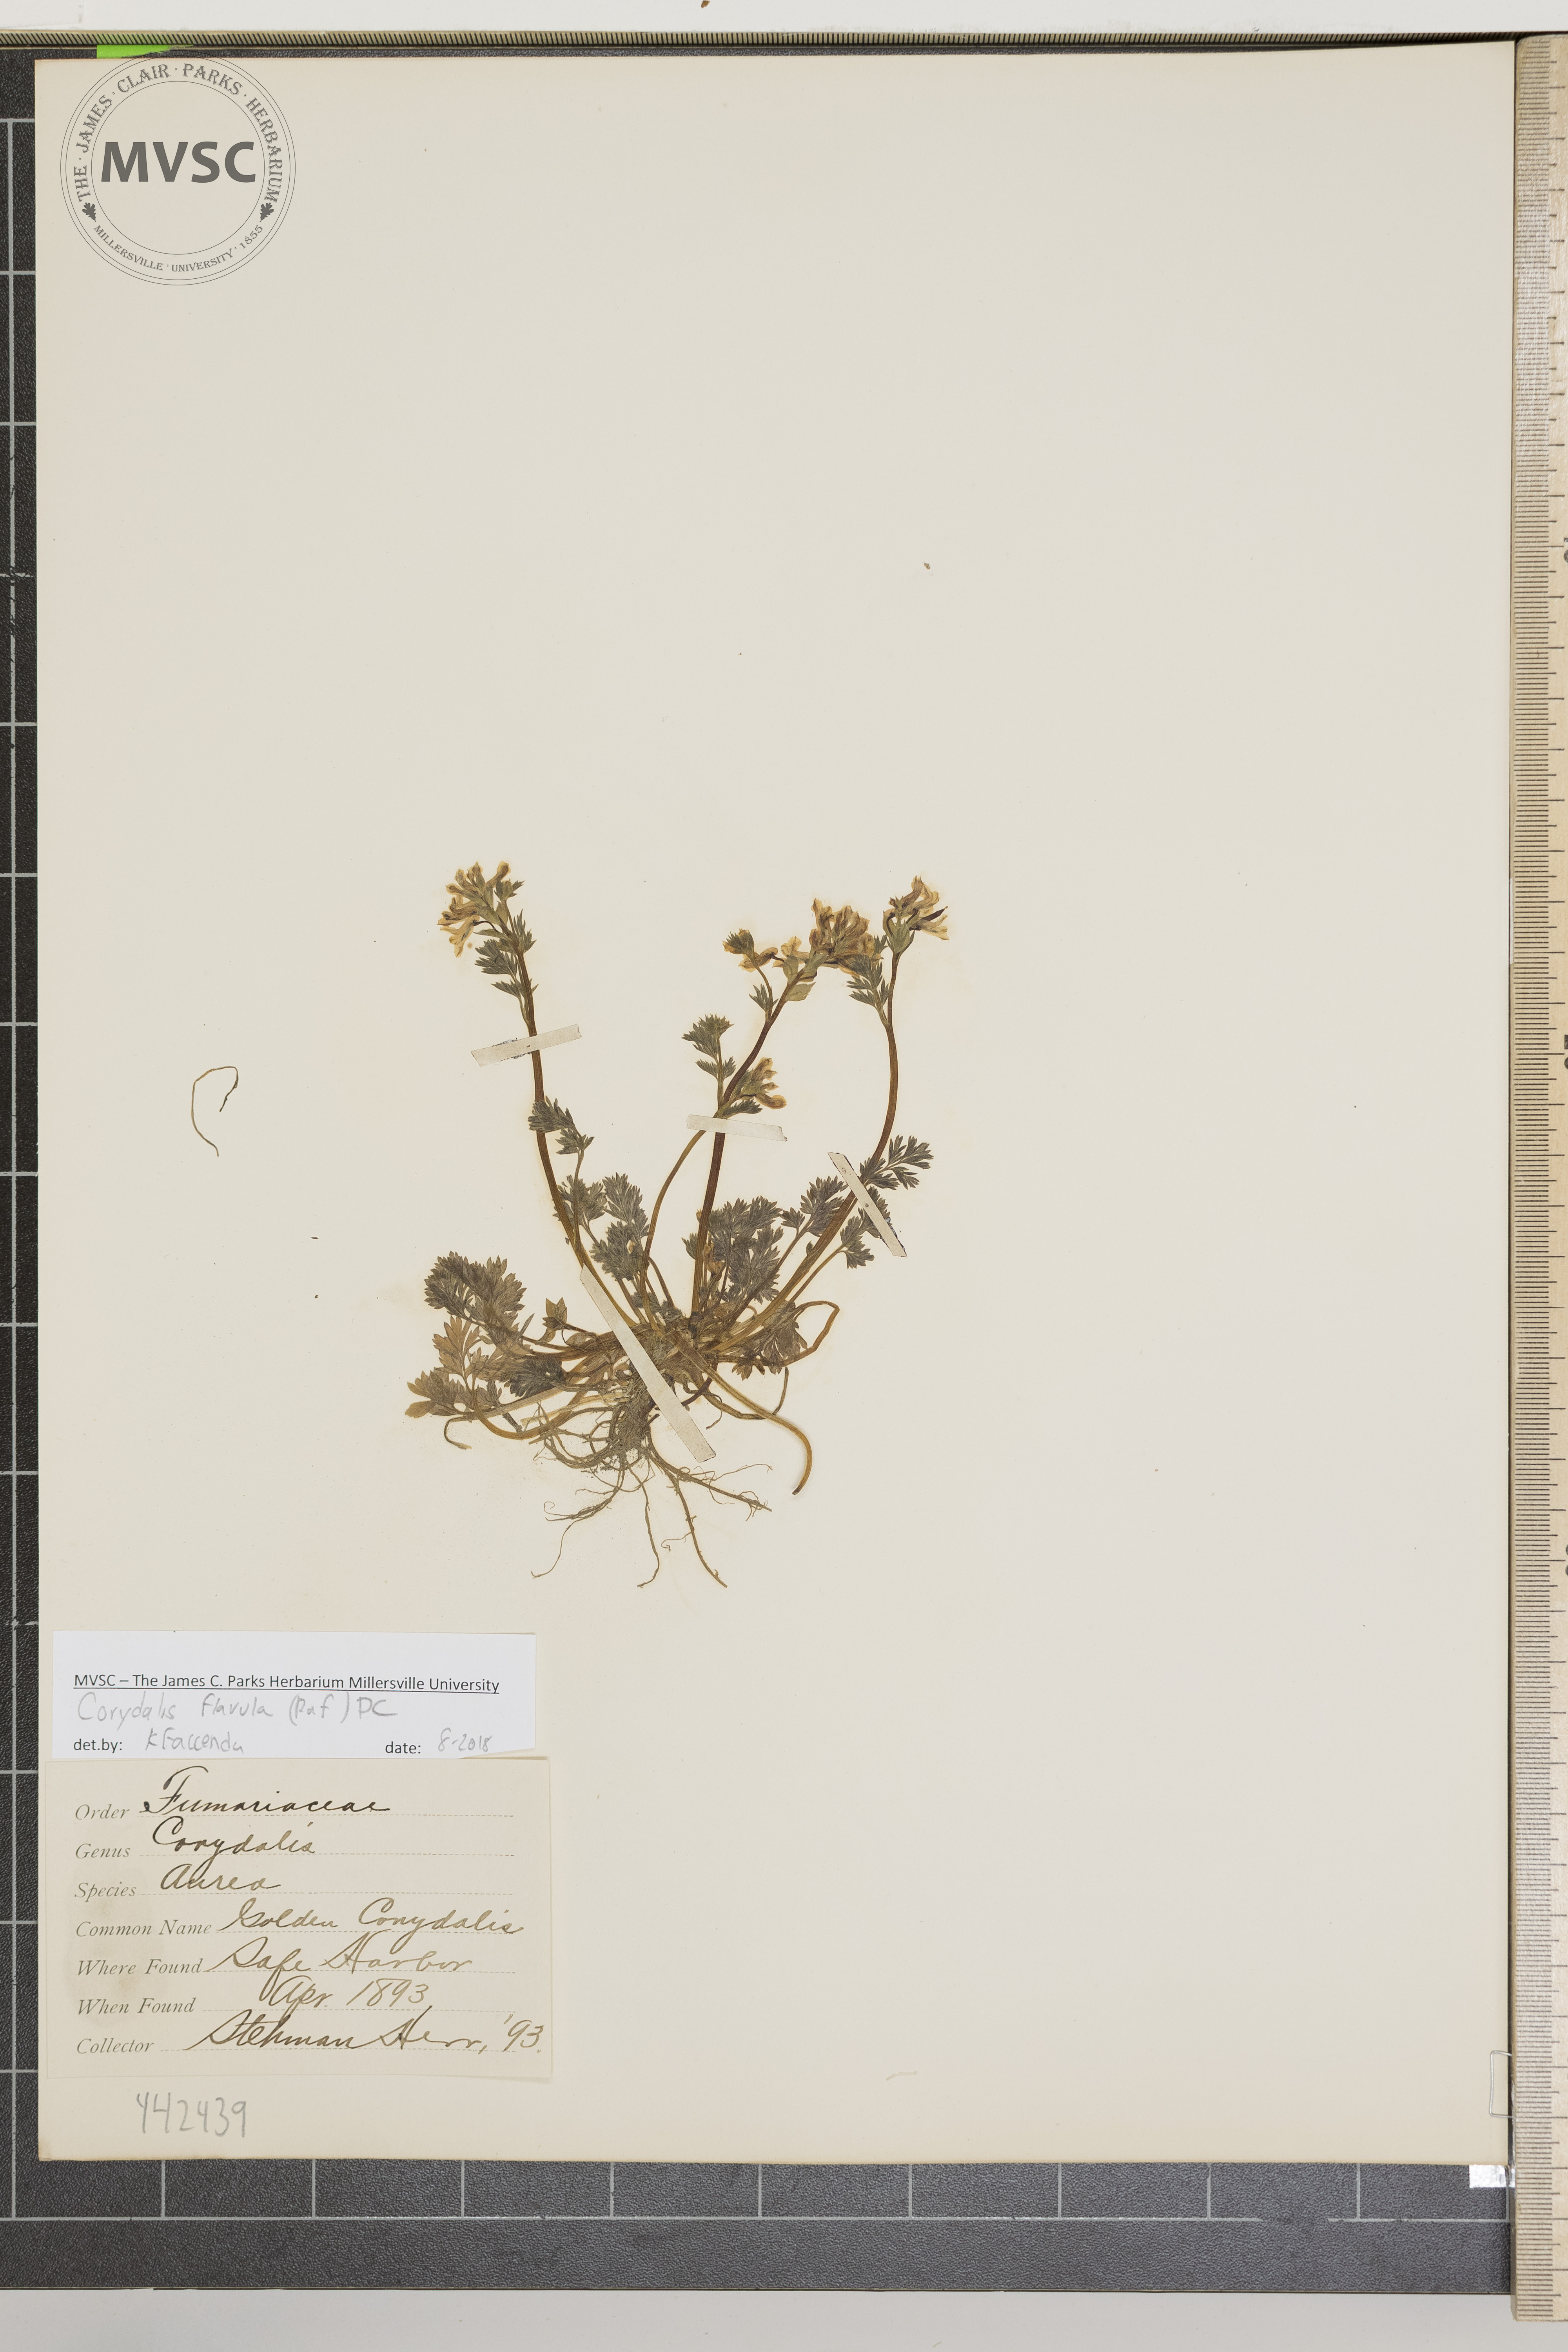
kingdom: Plantae
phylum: Tracheophyta
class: Magnoliopsida
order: Ranunculales
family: Papaveraceae
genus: Corydalis
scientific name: Corydalis flavula
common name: Golden corydalis
